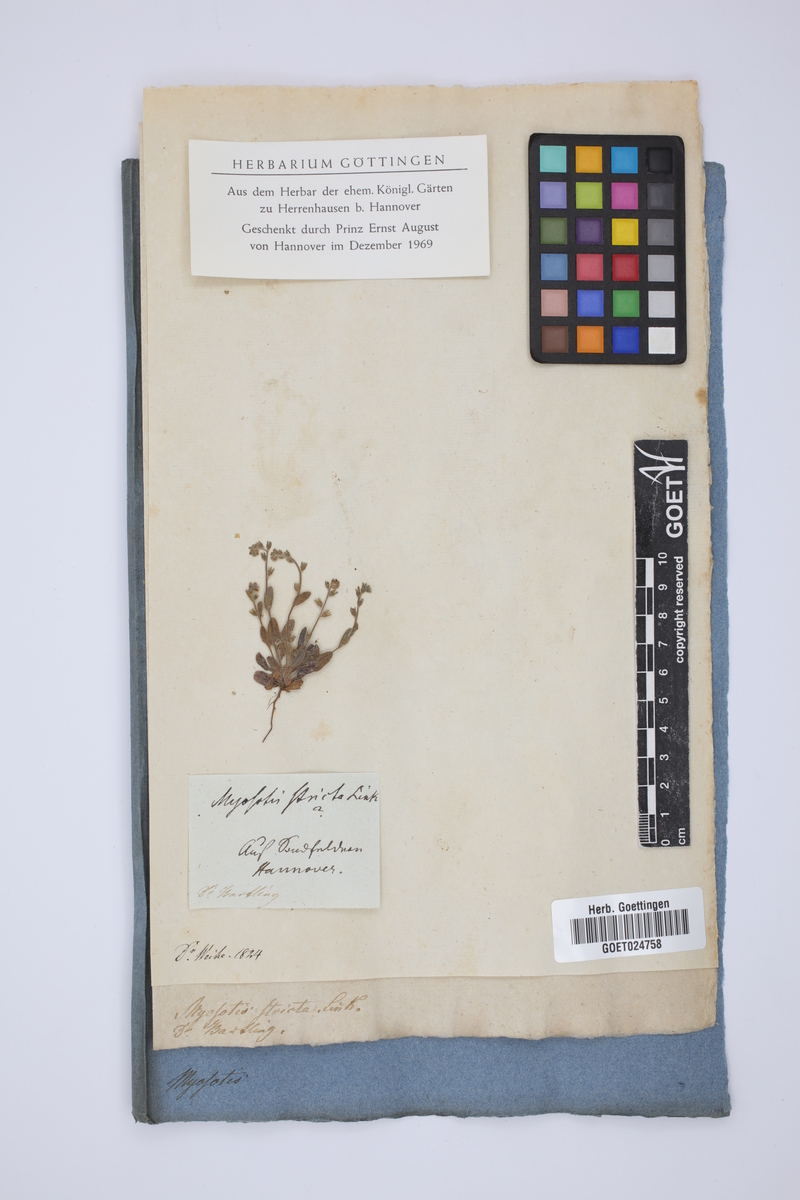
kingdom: Plantae
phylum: Tracheophyta
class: Magnoliopsida
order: Boraginales
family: Boraginaceae
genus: Myosotis
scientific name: Myosotis stricta
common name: Strict forget-me-not
